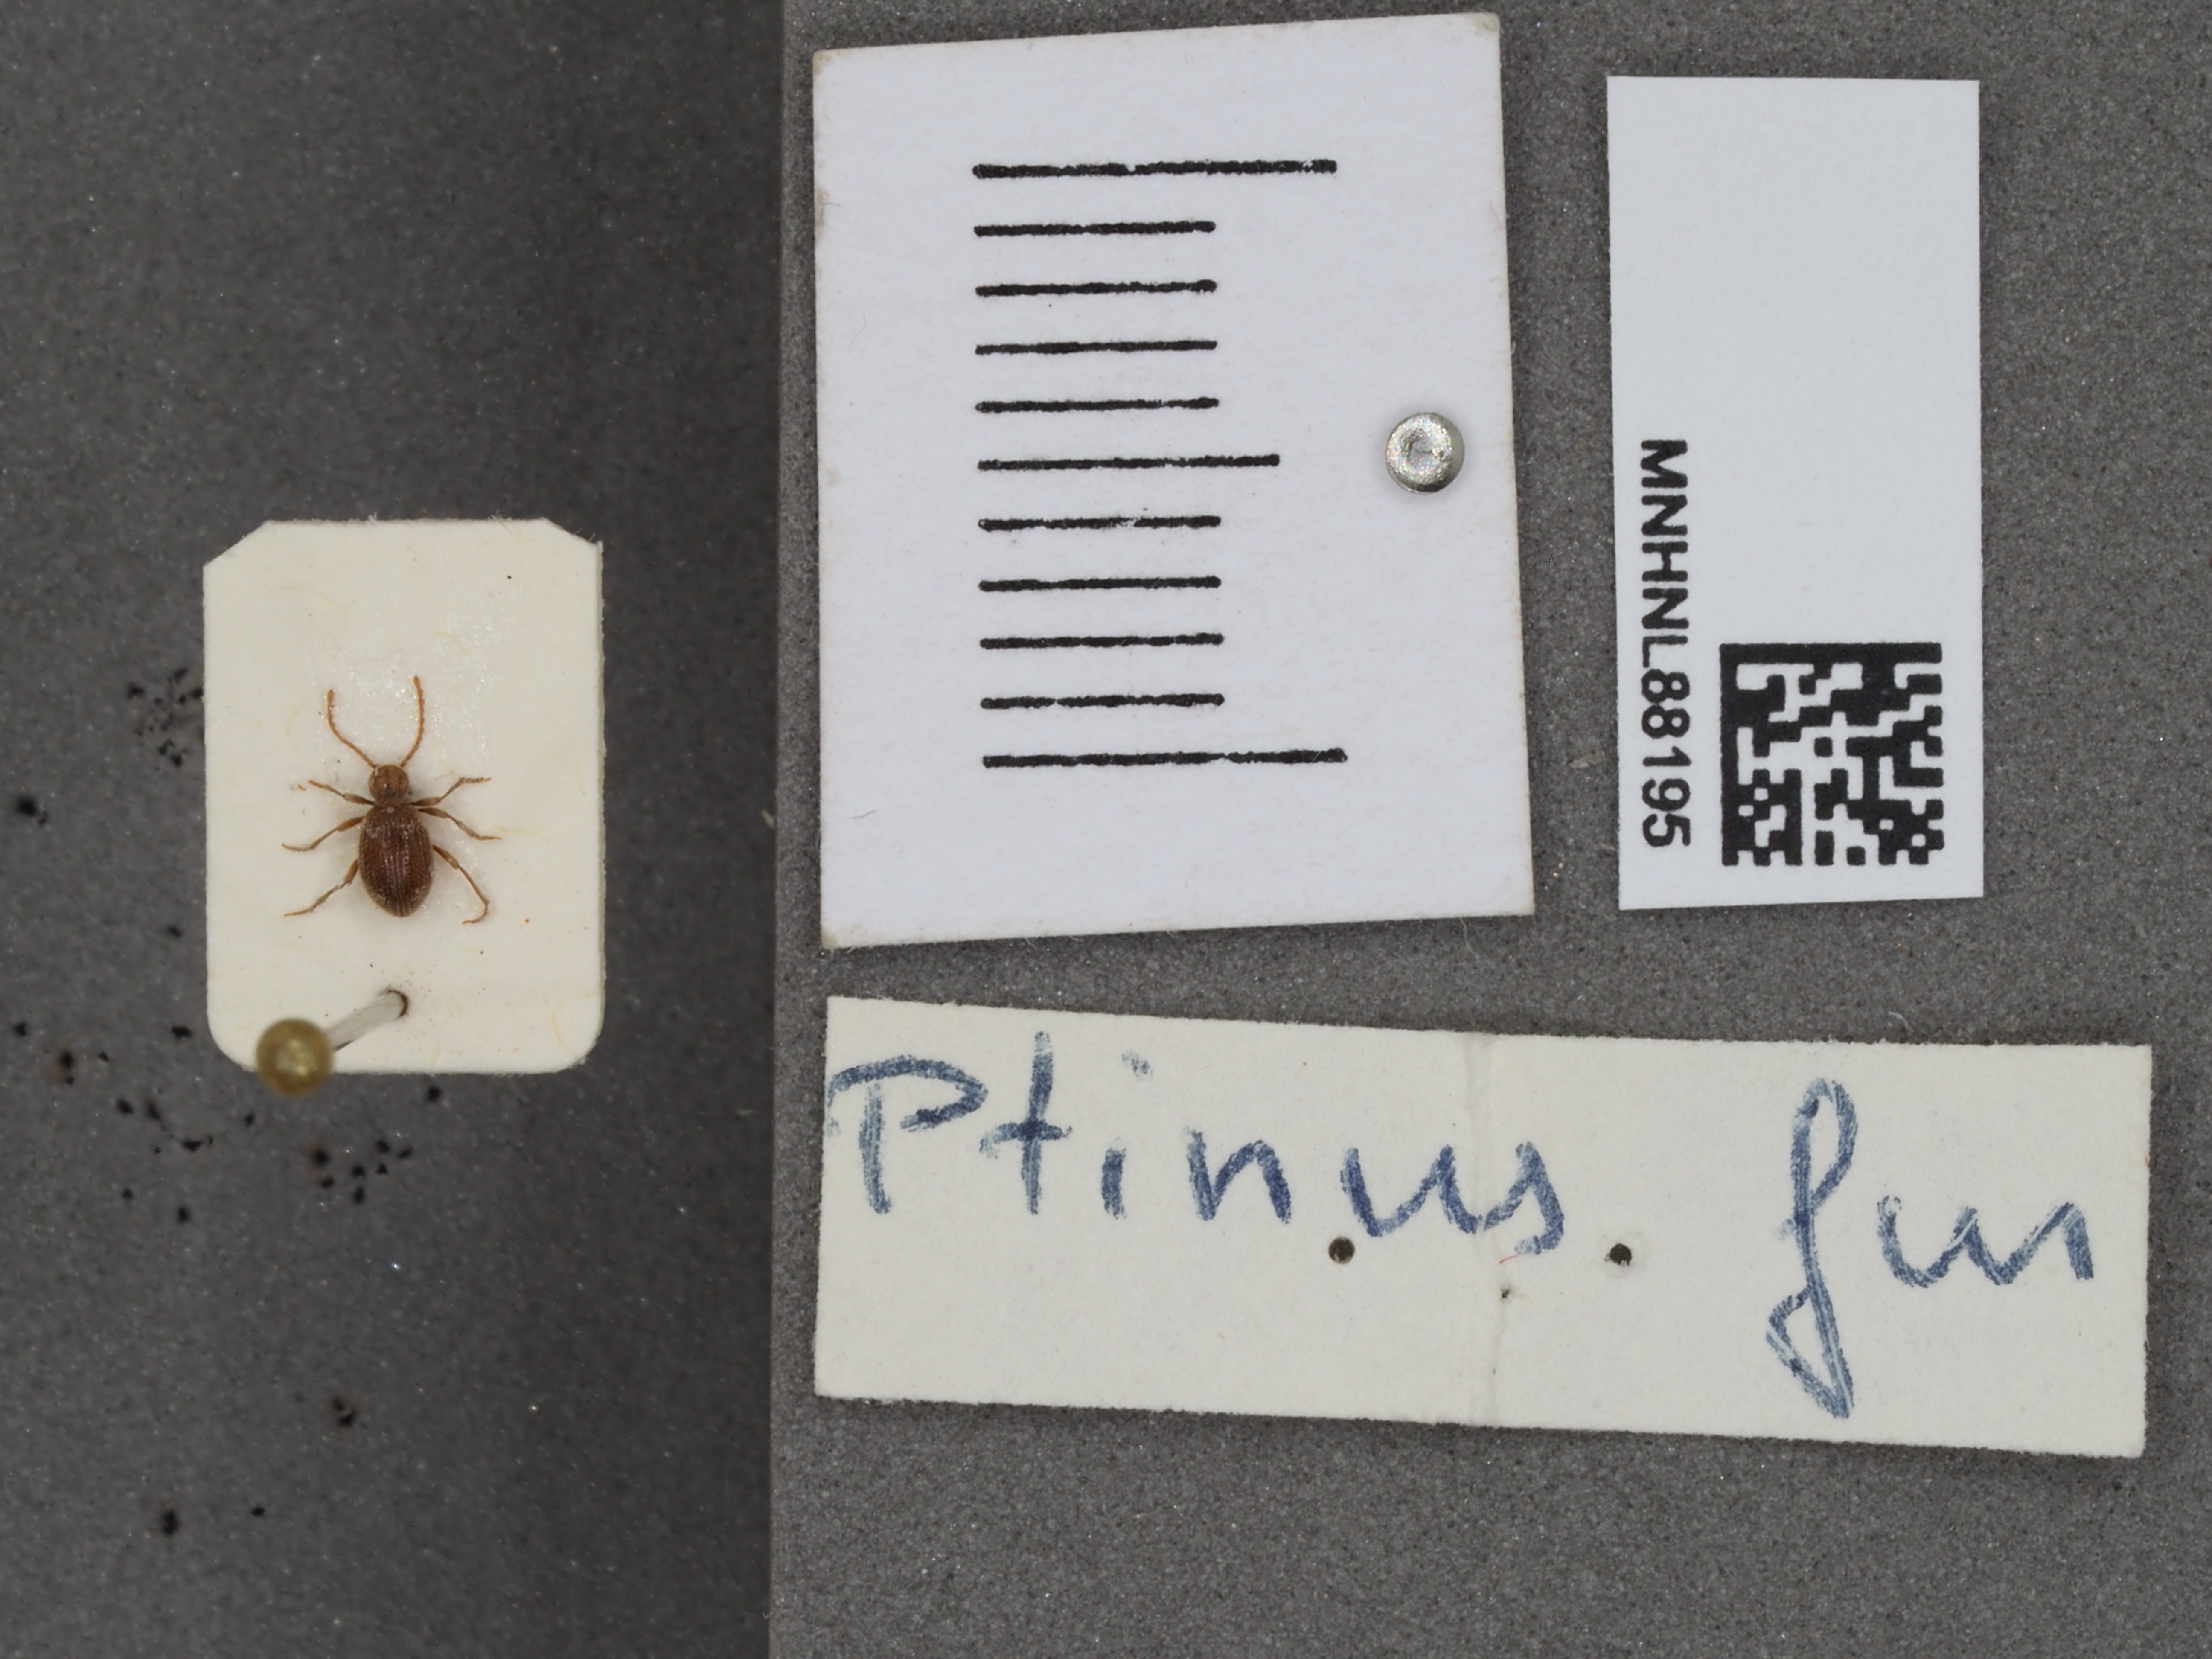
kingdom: Animalia
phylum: Arthropoda
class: Insecta
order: Coleoptera
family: Ptinidae
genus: Ptinus
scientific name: Ptinus fur
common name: White-marked spider beetle
